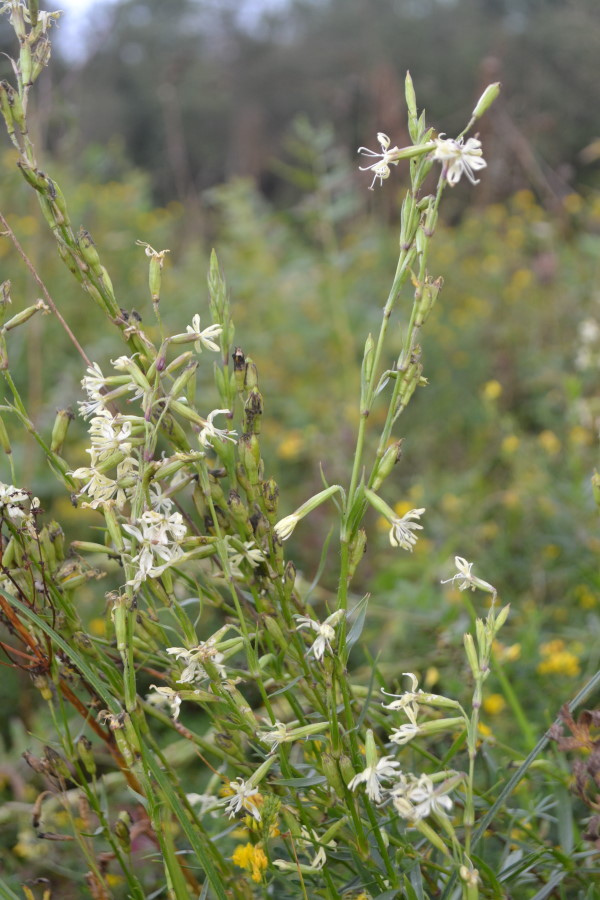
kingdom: Plantae
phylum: Tracheophyta
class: Magnoliopsida
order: Caryophyllales
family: Caryophyllaceae
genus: Silene
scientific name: Silene tatarica
